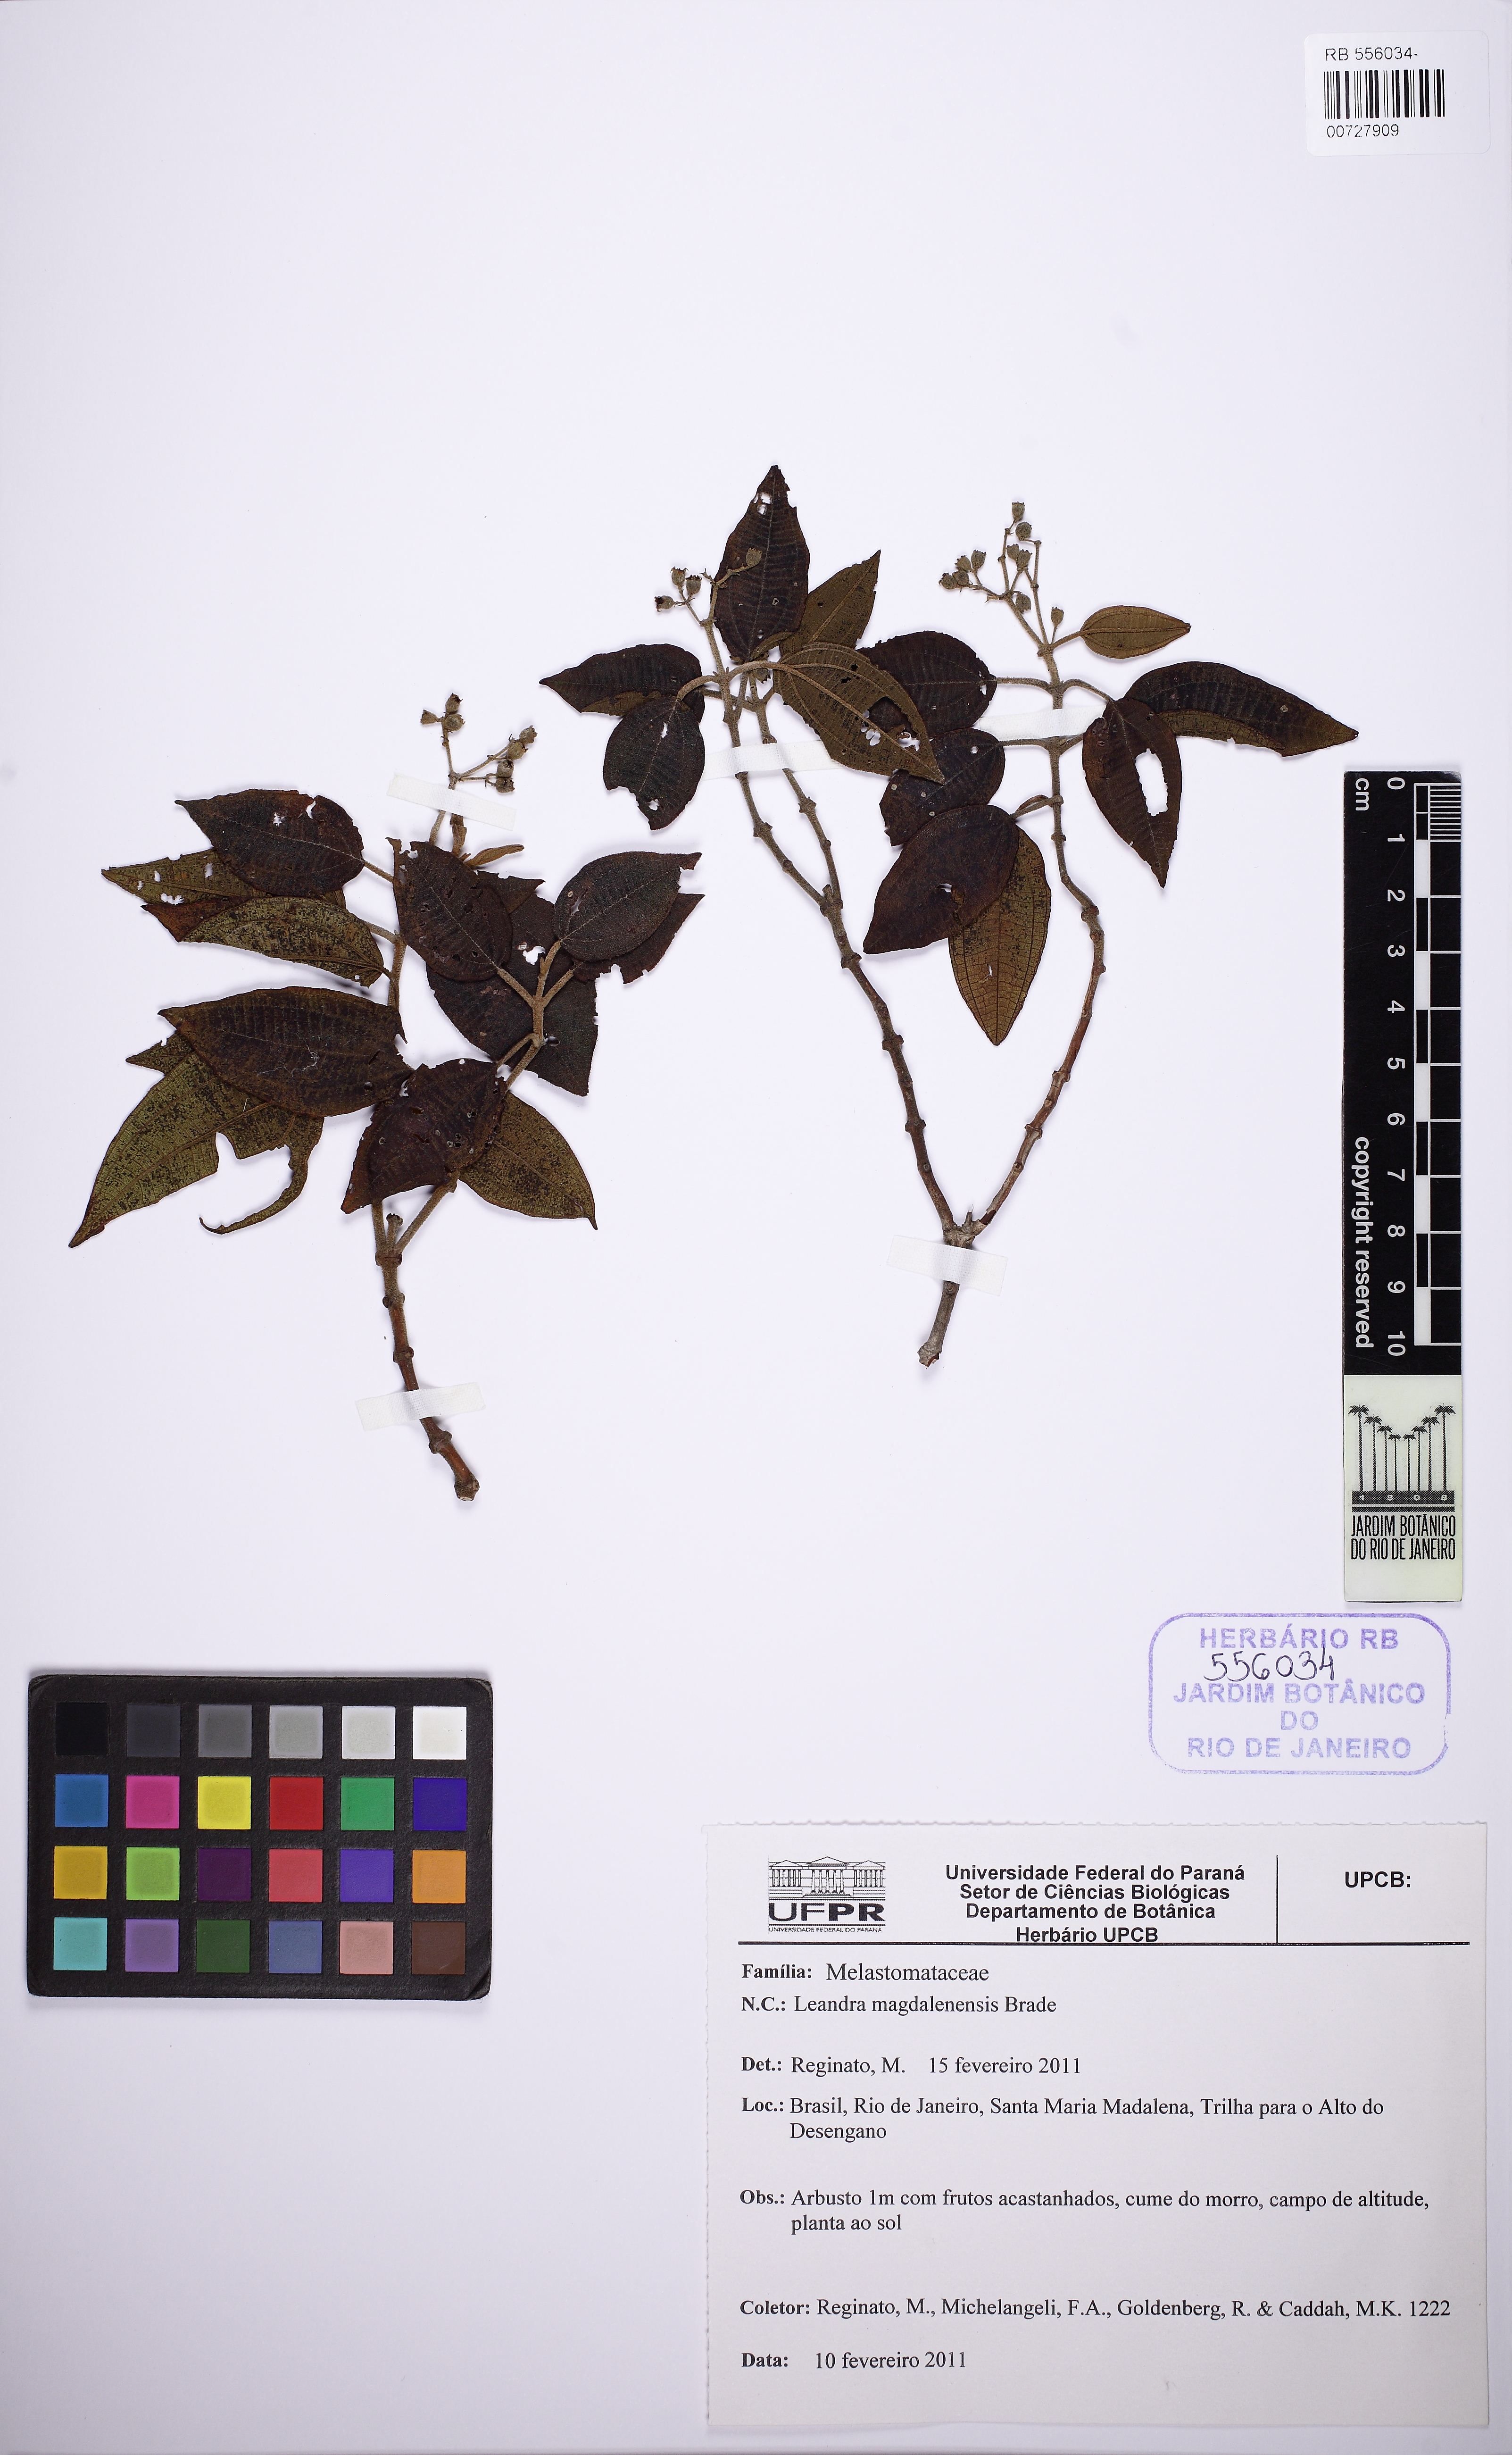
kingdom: Plantae
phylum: Tracheophyta
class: Magnoliopsida
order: Myrtales
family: Melastomataceae
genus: Miconia
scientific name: Miconia magdalenensis
